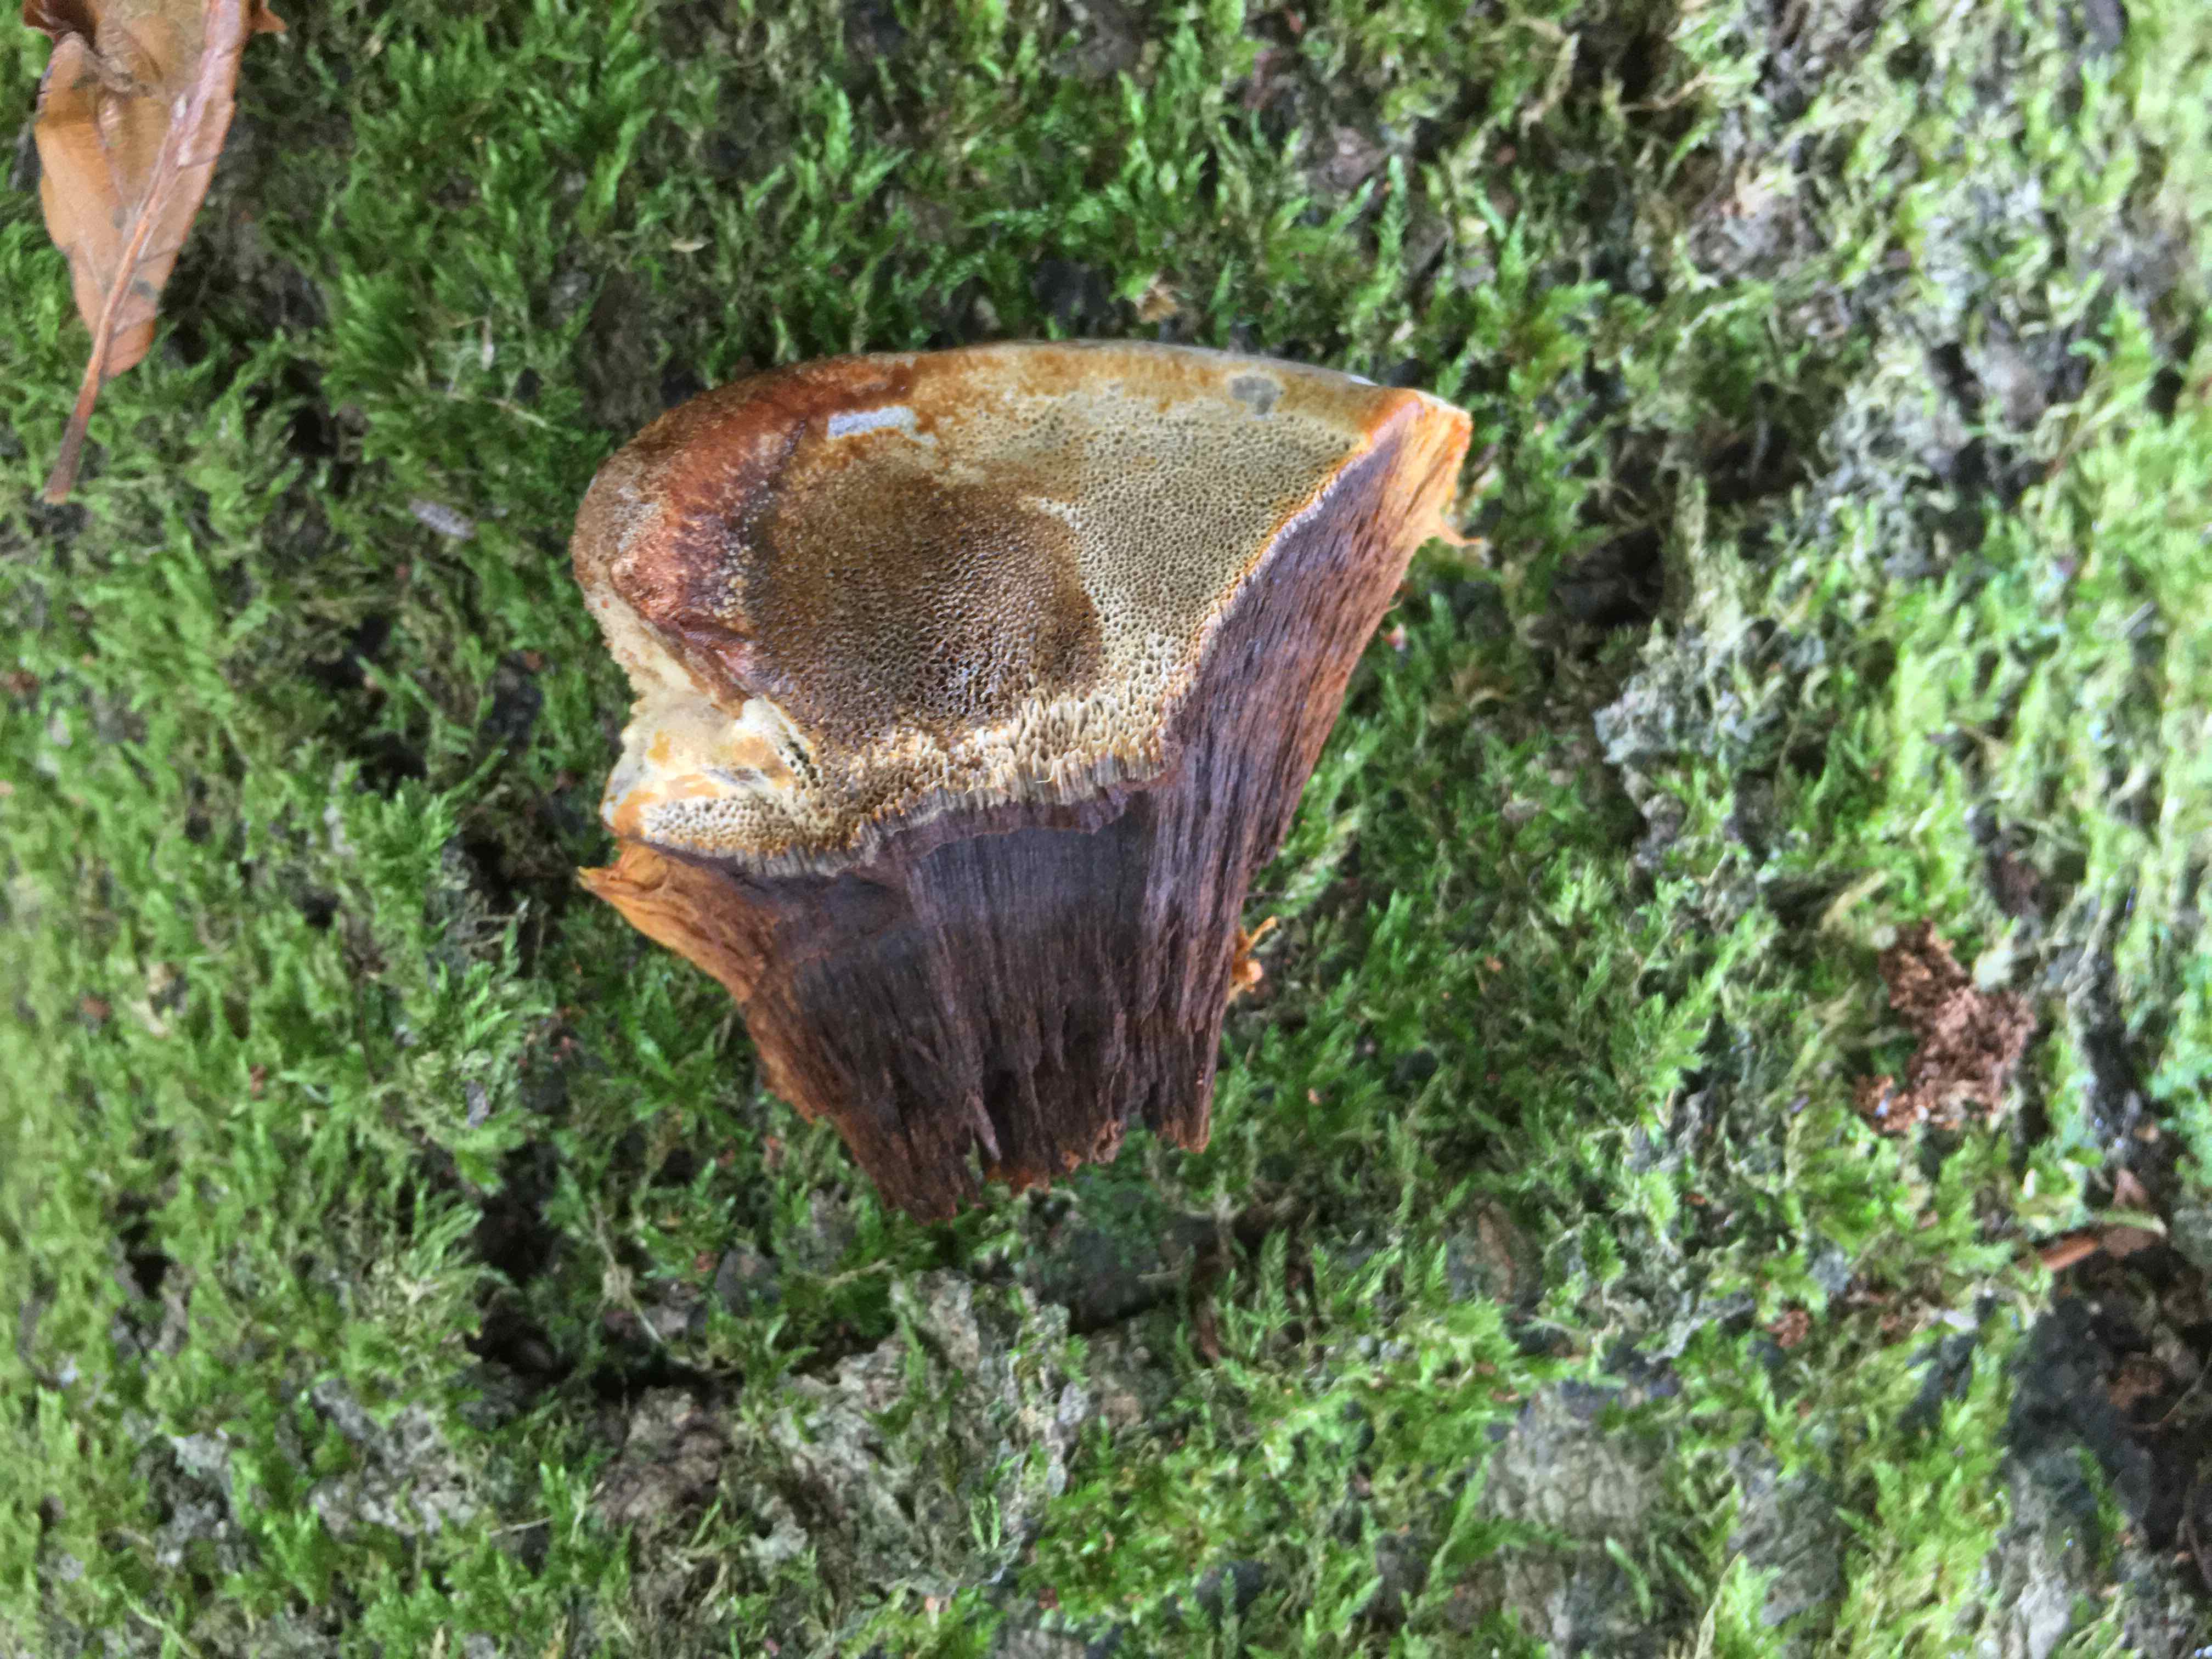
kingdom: Fungi
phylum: Basidiomycota
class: Agaricomycetes
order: Hymenochaetales
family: Hymenochaetaceae
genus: Inonotus
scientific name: Inonotus cuticularis
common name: kroghåret spejlporesvamp
